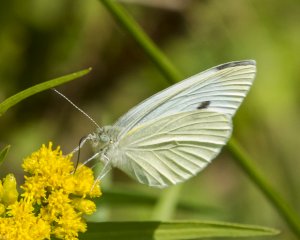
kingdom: Animalia
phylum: Arthropoda
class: Insecta
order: Lepidoptera
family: Pieridae
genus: Pieris
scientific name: Pieris rapae
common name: Cabbage White
